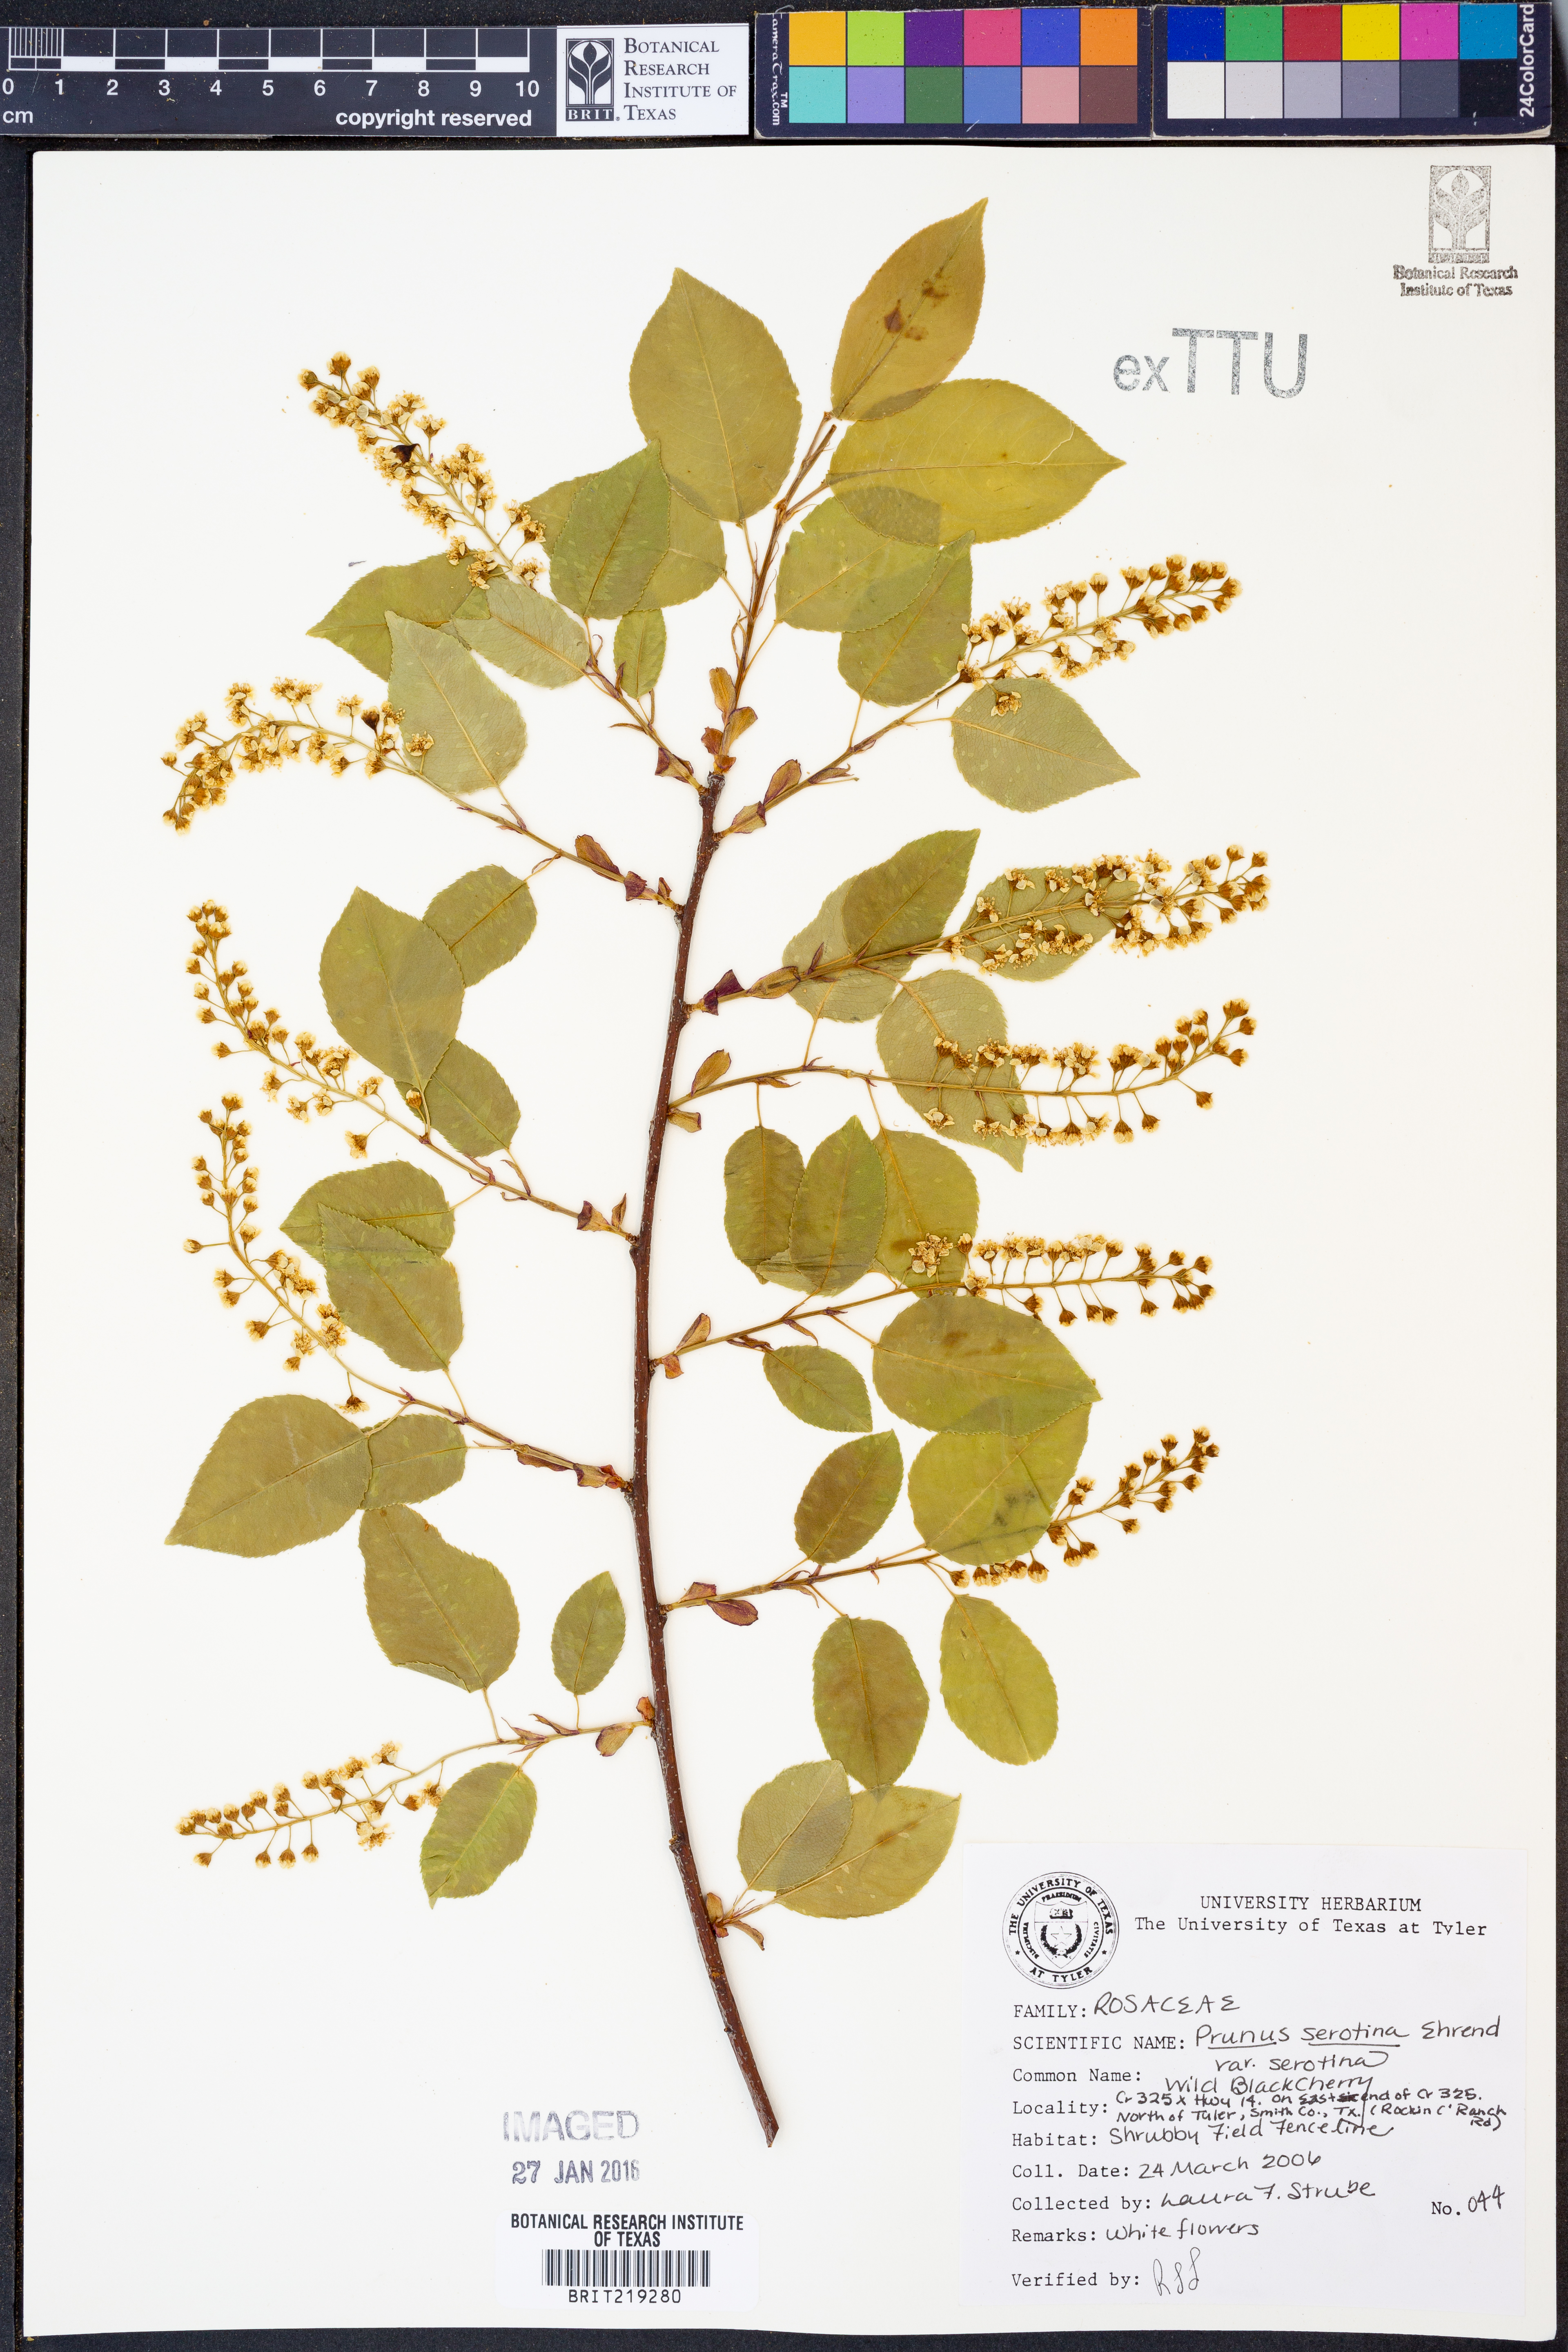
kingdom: Plantae
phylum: Tracheophyta
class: Magnoliopsida
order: Rosales
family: Rosaceae
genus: Prunus
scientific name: Prunus serotina
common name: Black cherry
